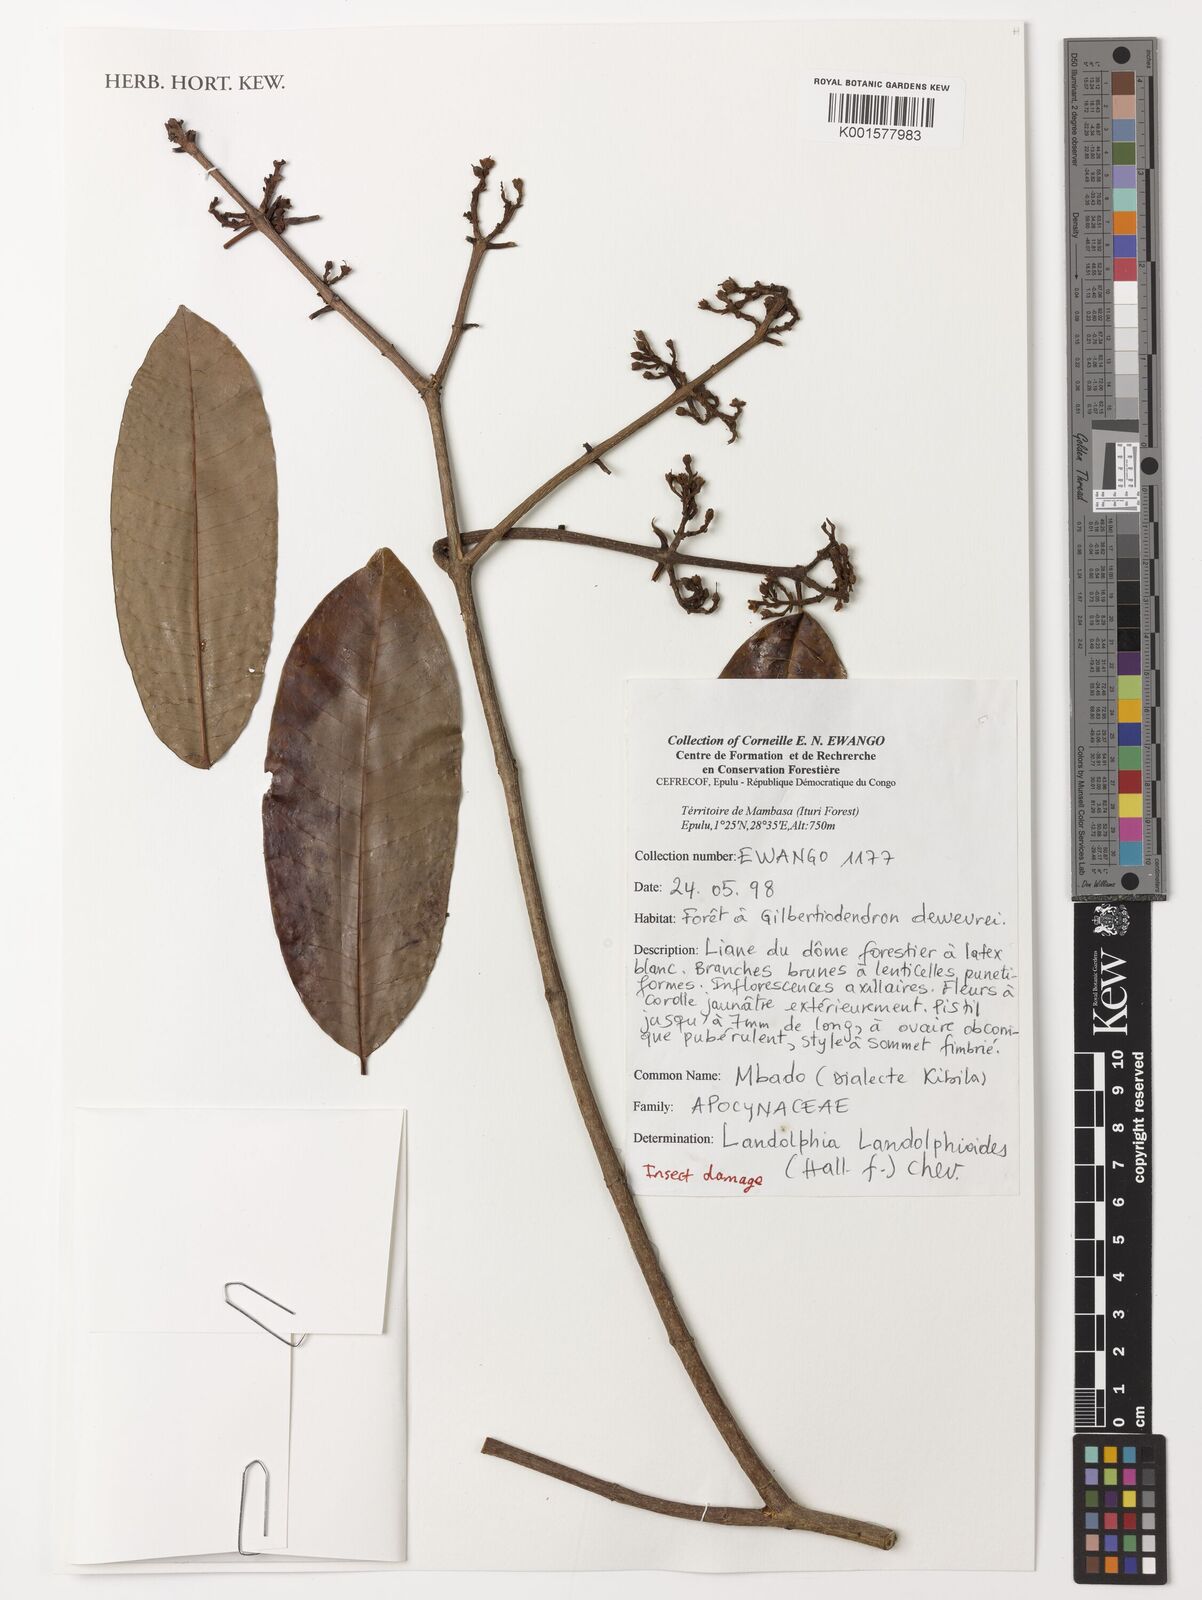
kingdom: Plantae
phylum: Tracheophyta
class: Magnoliopsida
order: Gentianales
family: Apocynaceae
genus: Landolphia
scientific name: Landolphia landolphioides
